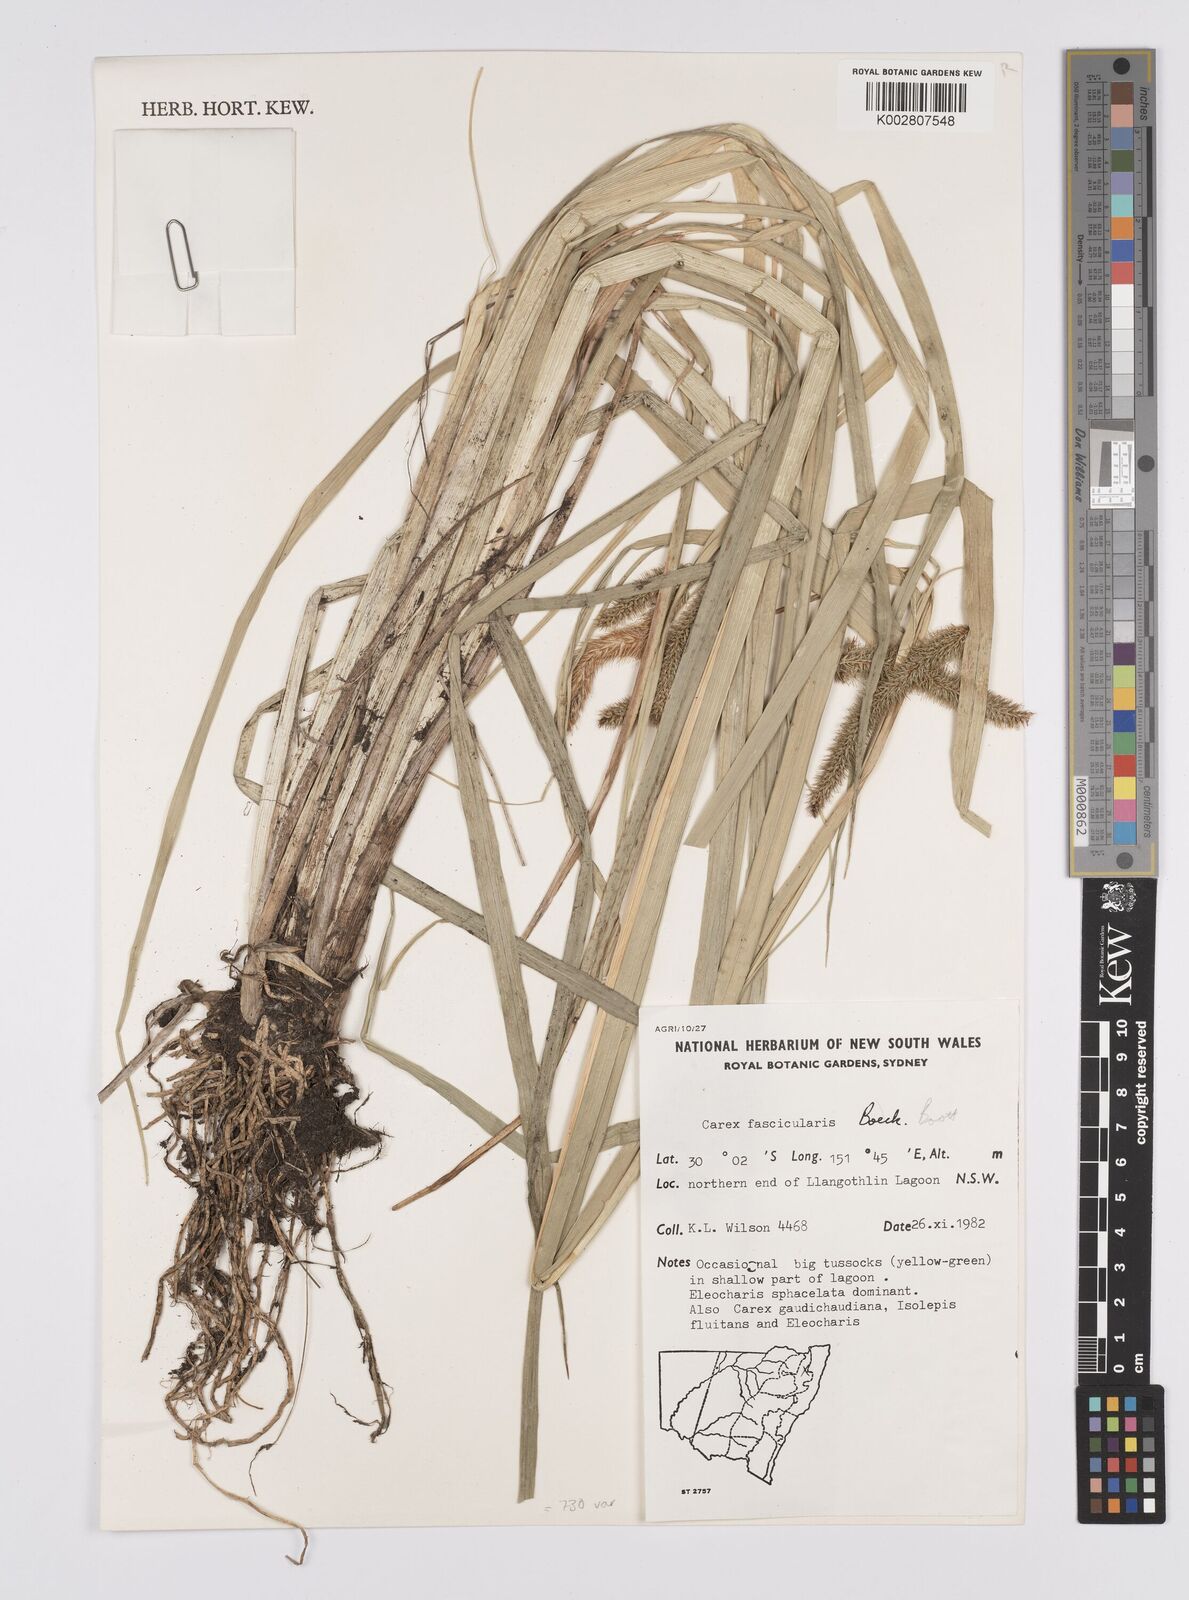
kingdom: Plantae
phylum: Tracheophyta
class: Liliopsida
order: Poales
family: Cyperaceae
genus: Carex
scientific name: Carex fascicularis
